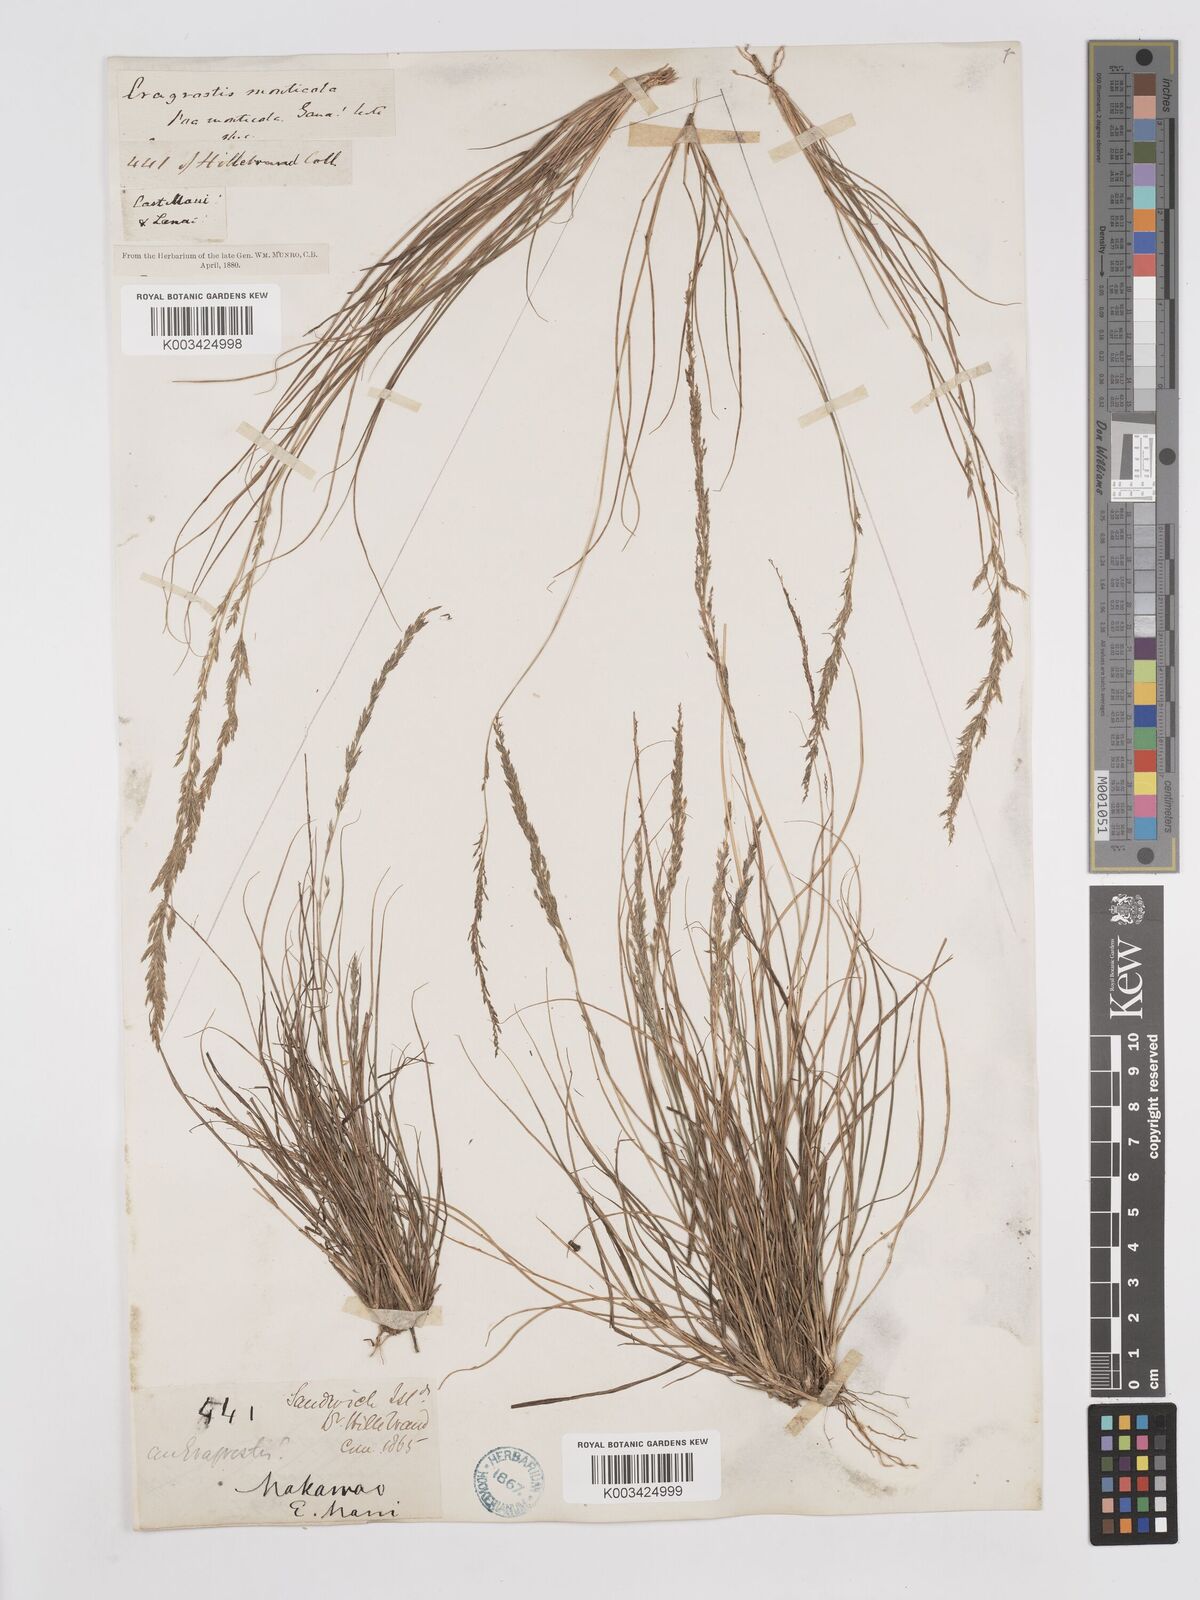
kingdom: Plantae
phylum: Tracheophyta
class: Liliopsida
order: Poales
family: Poaceae
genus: Eragrostis
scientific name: Eragrostis monticola
